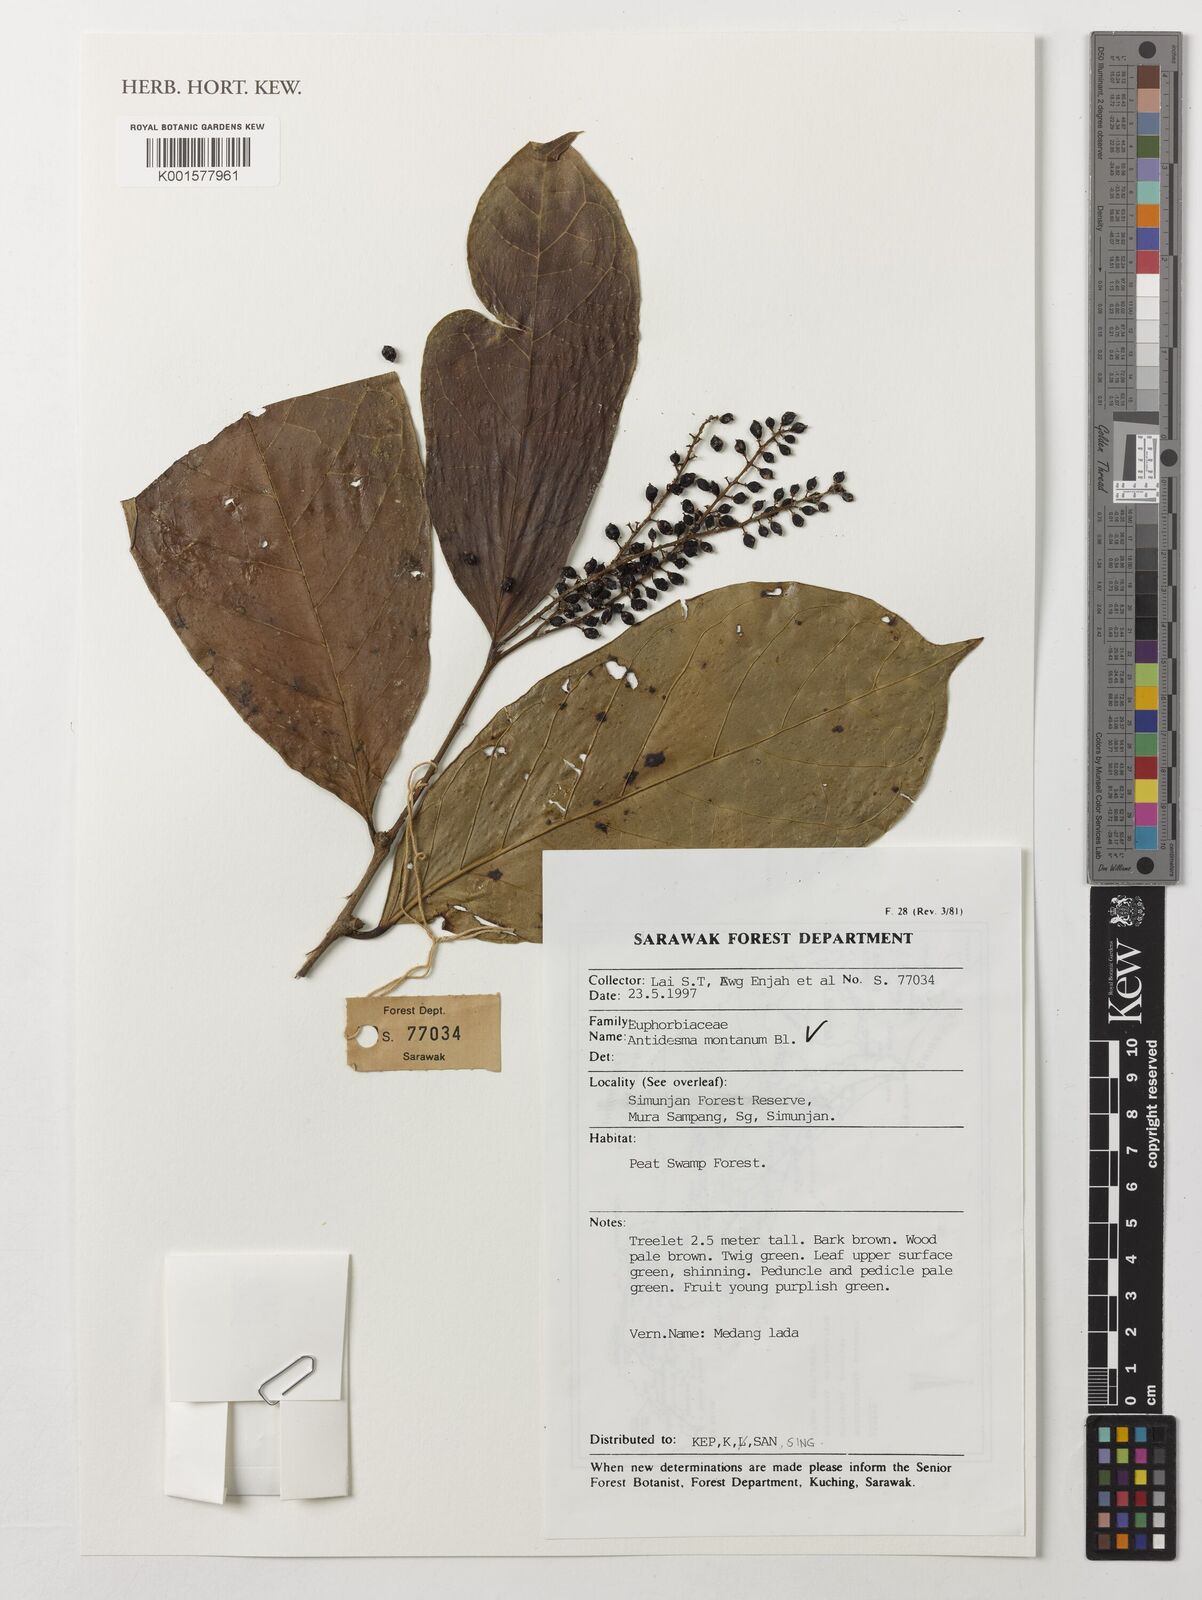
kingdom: Plantae
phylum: Tracheophyta
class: Magnoliopsida
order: Malpighiales
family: Phyllanthaceae
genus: Antidesma
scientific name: Antidesma montanum
